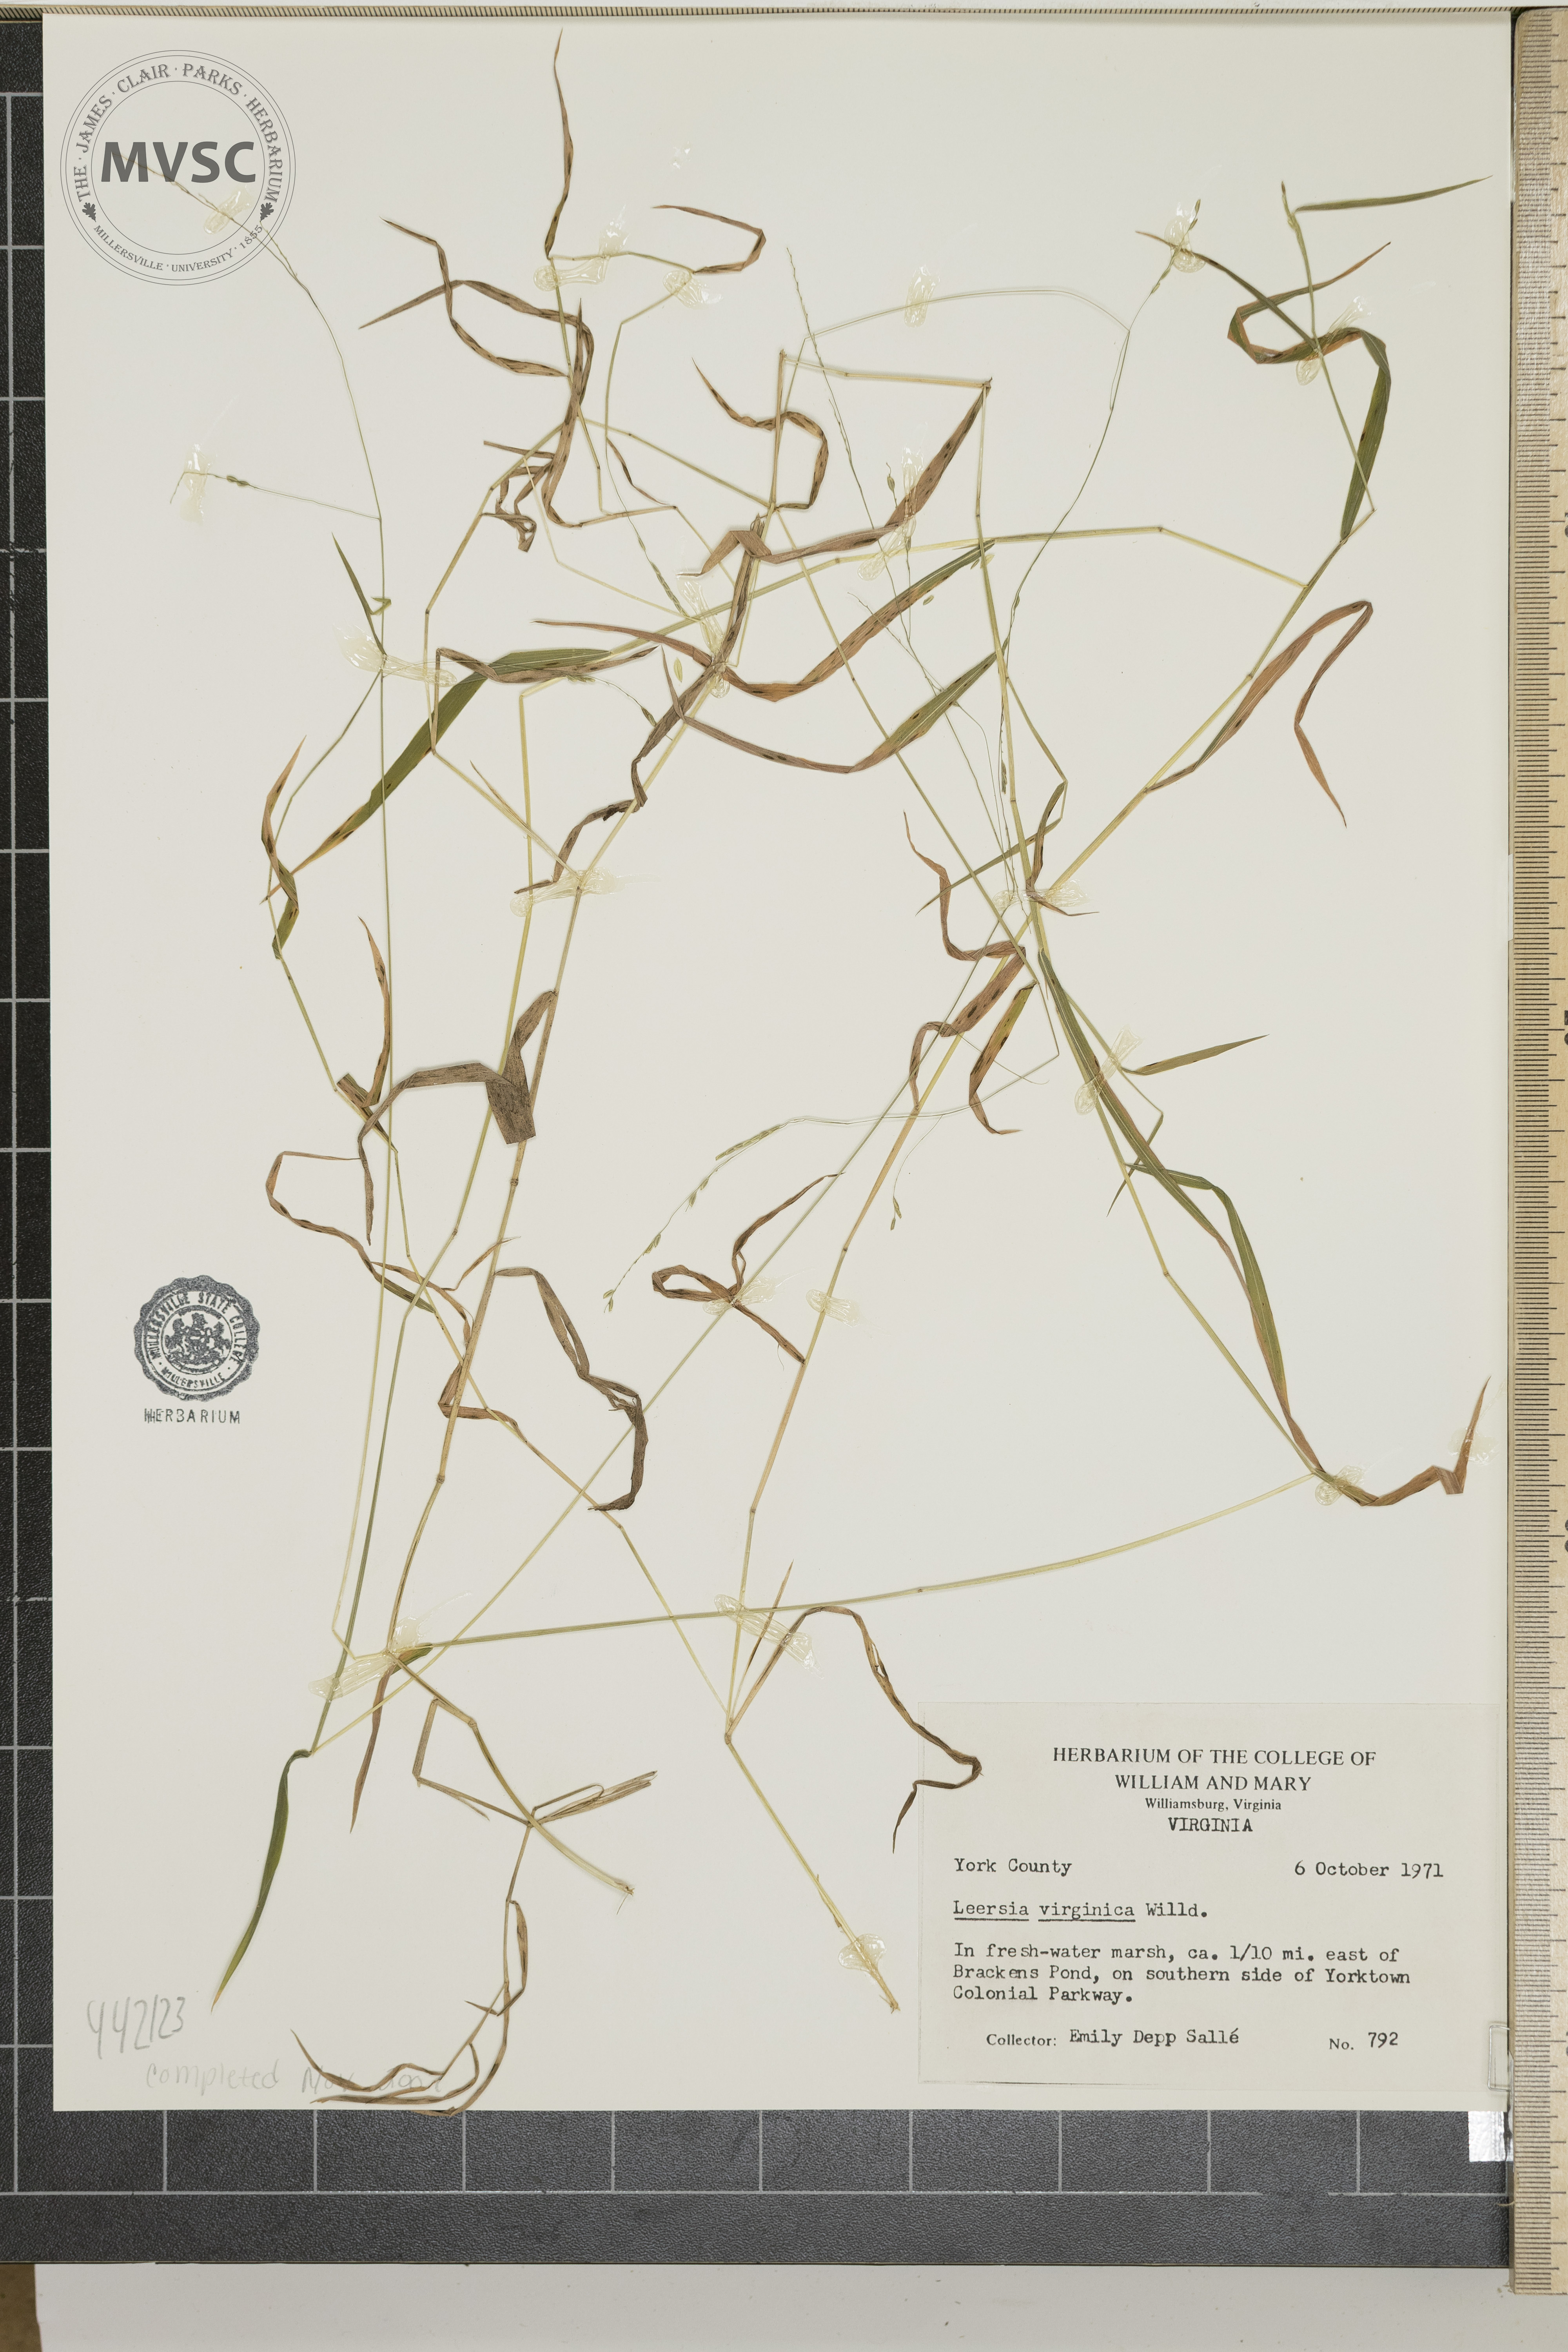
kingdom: Plantae
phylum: Tracheophyta
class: Liliopsida
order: Poales
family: Poaceae
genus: Leersia
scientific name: Leersia virginica
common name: White cutgrass
